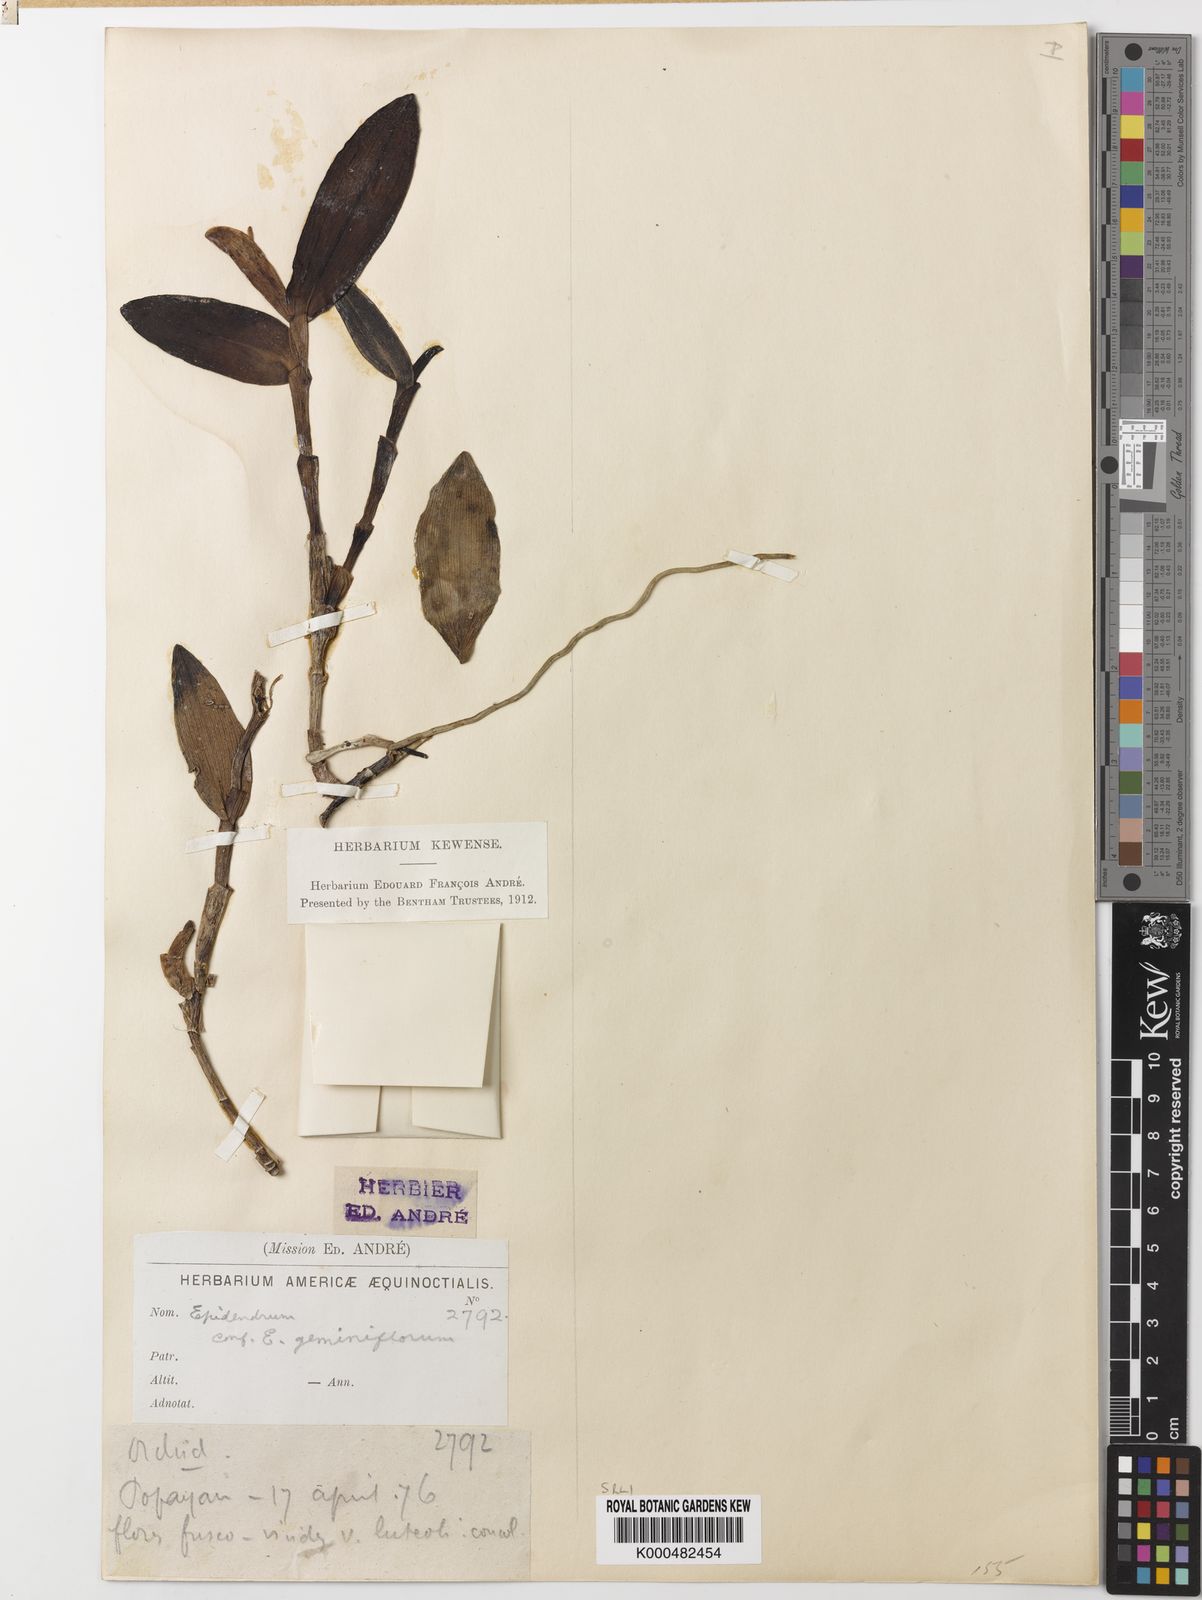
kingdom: Plantae
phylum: Tracheophyta
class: Liliopsida
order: Asparagales
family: Orchidaceae
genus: Epidendrum
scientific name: Epidendrum geminiflorum
